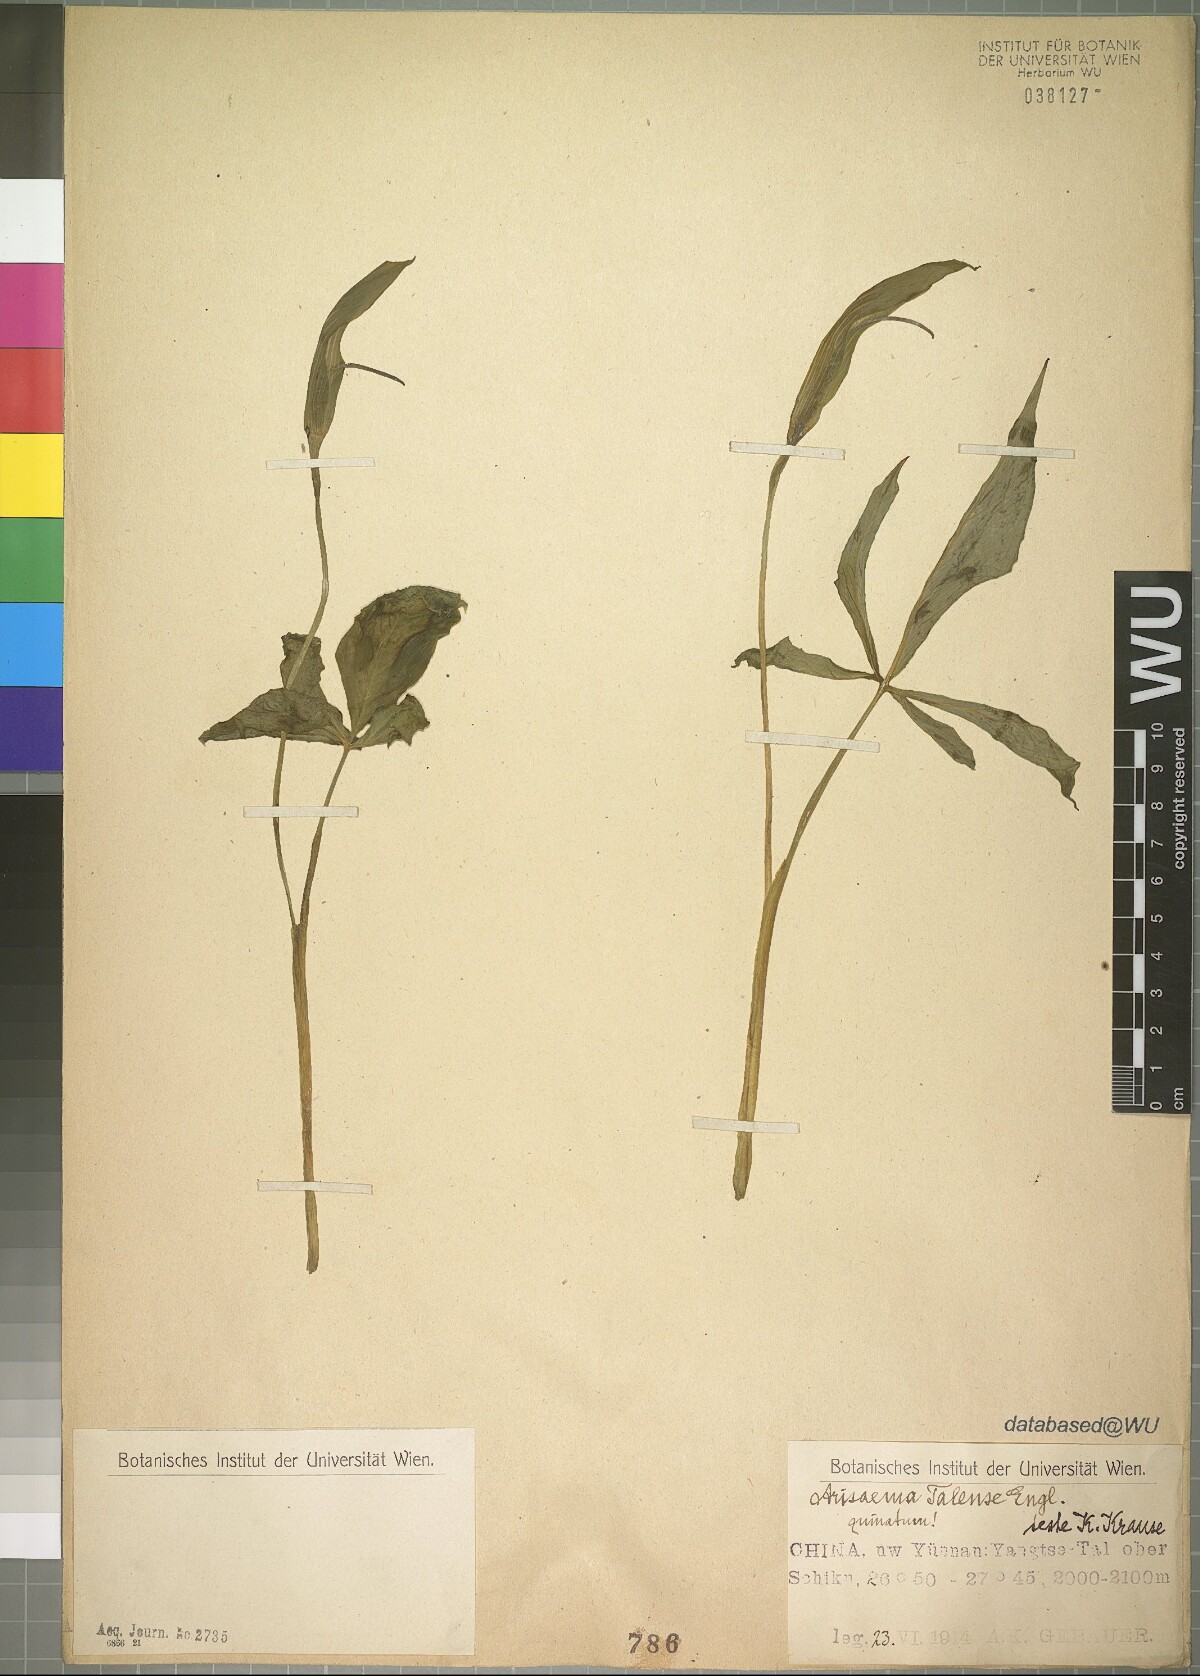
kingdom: Plantae
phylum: Tracheophyta
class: Liliopsida
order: Alismatales
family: Araceae
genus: Arisaema
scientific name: Arisaema lichiangense
